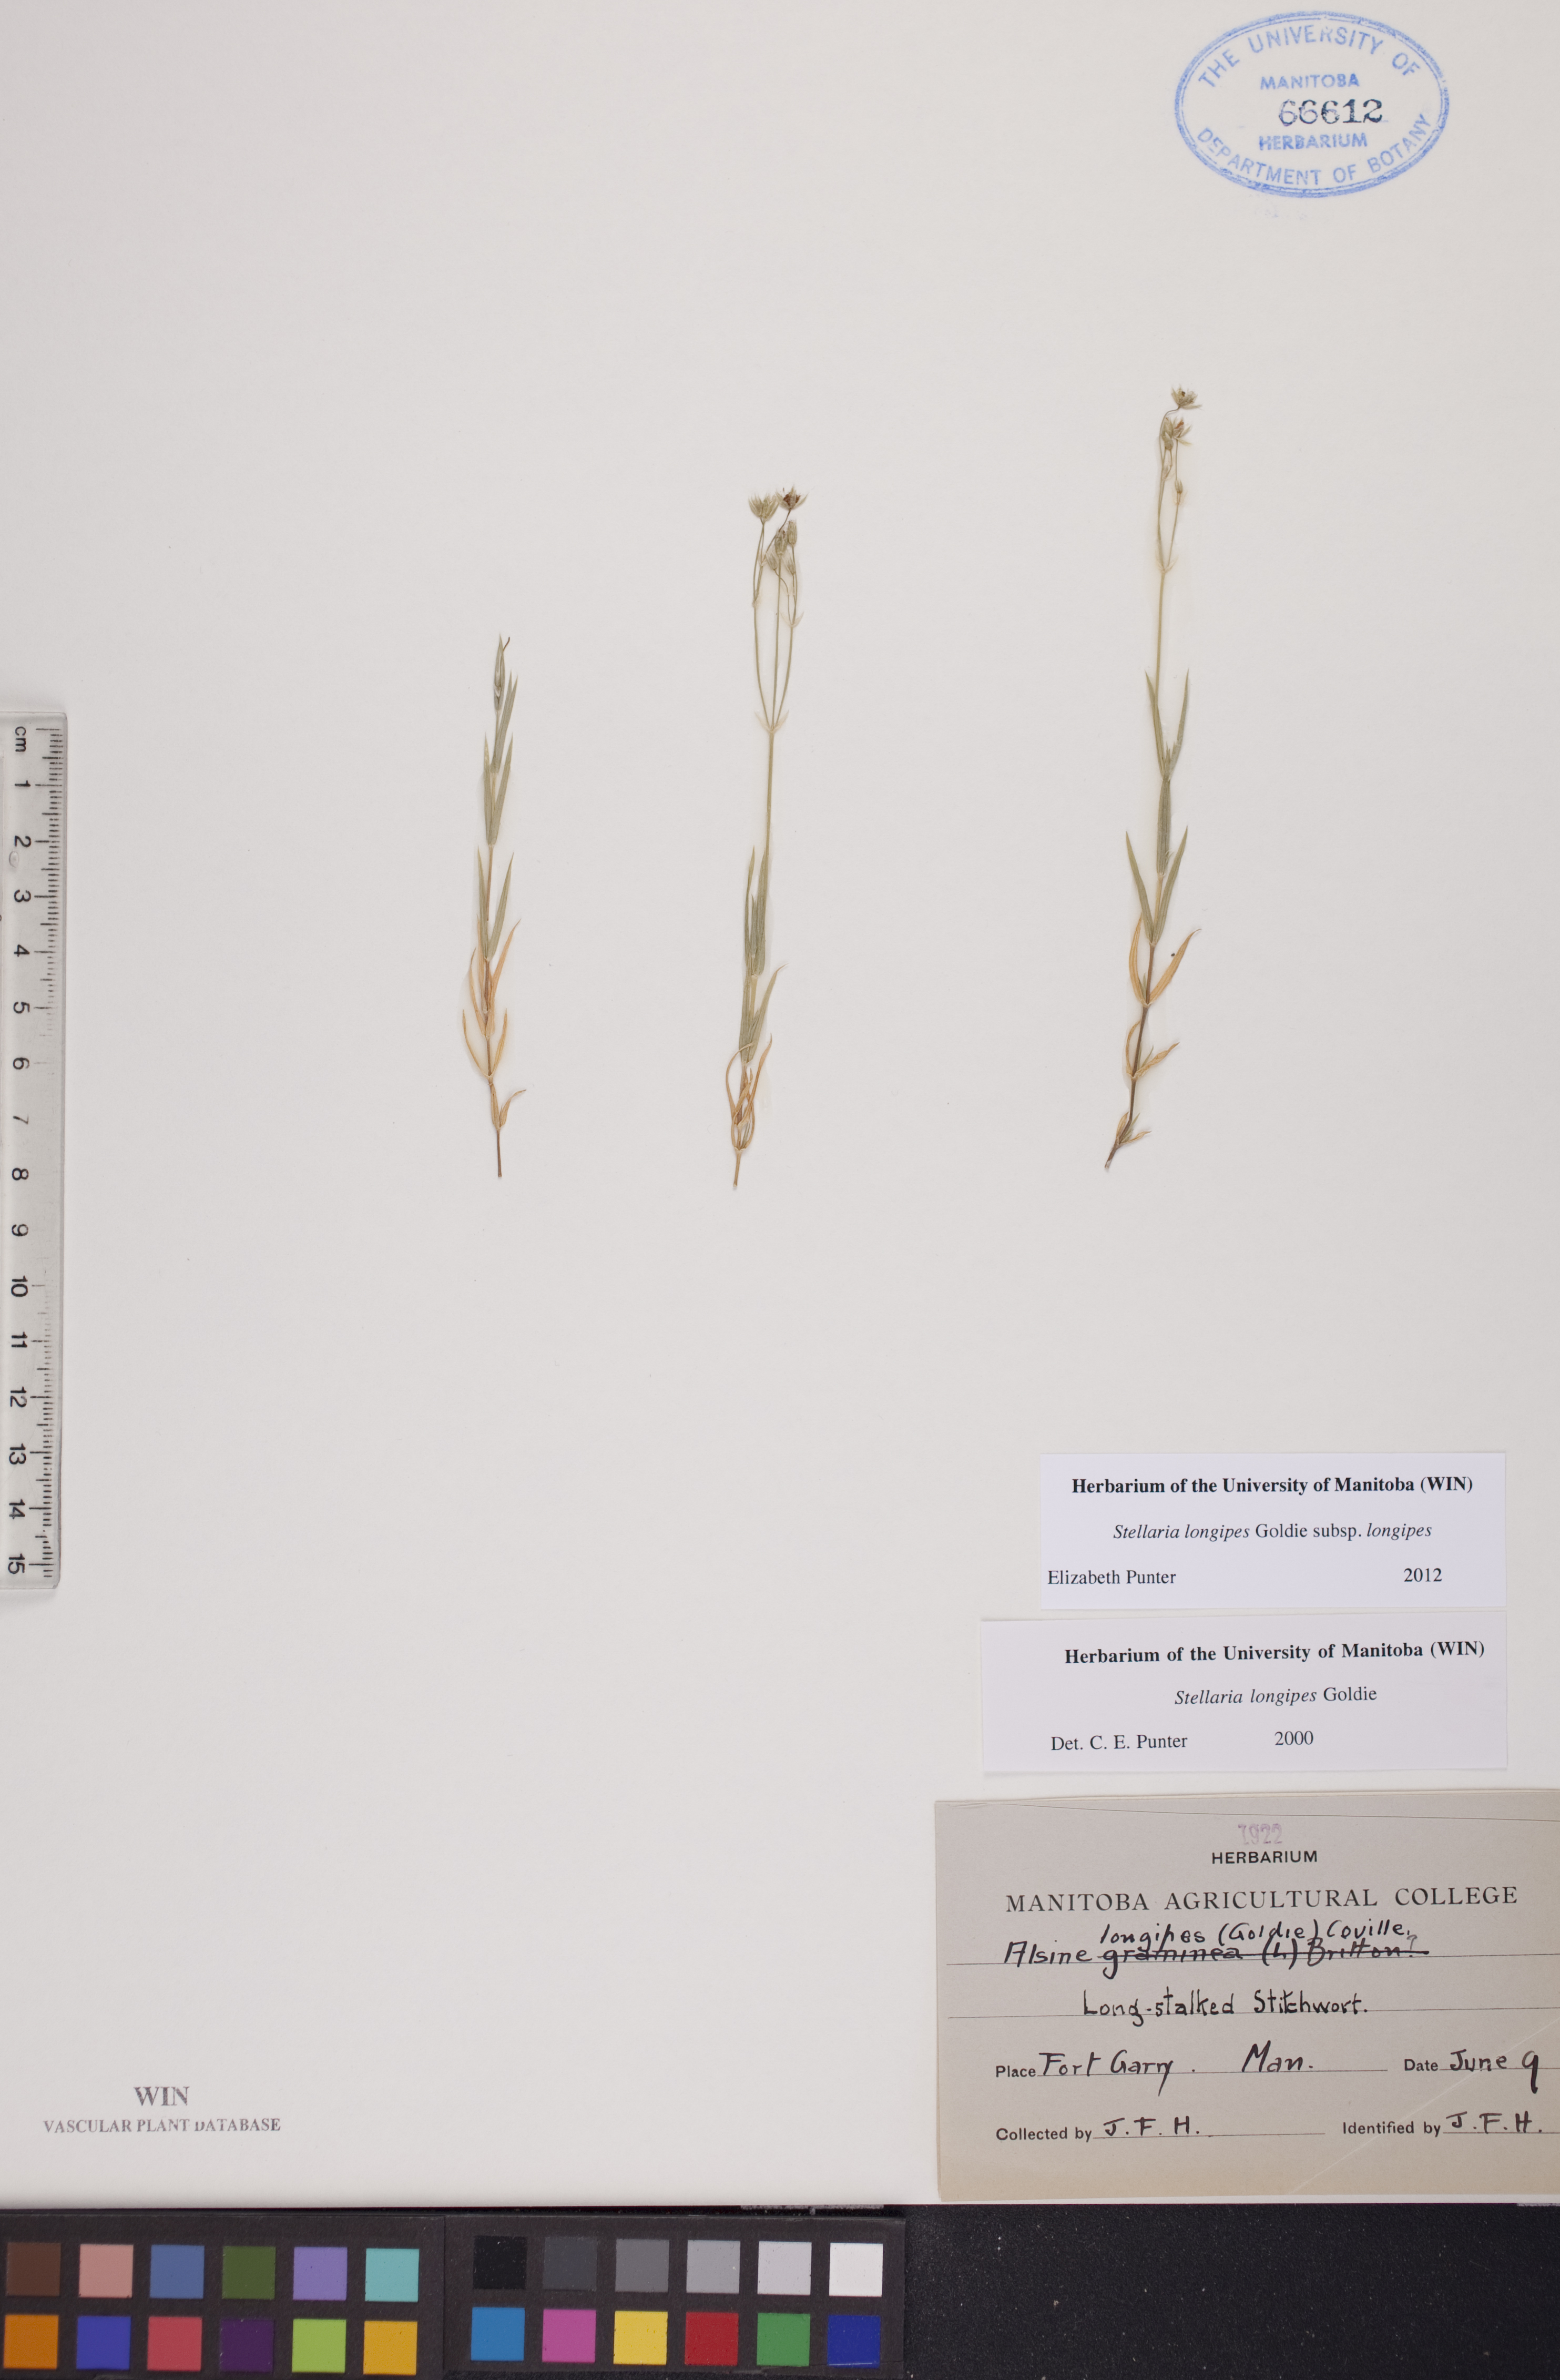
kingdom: Plantae
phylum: Tracheophyta
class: Magnoliopsida
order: Caryophyllales
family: Caryophyllaceae
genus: Stellaria
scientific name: Stellaria longipes
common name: Goldie's starwort
